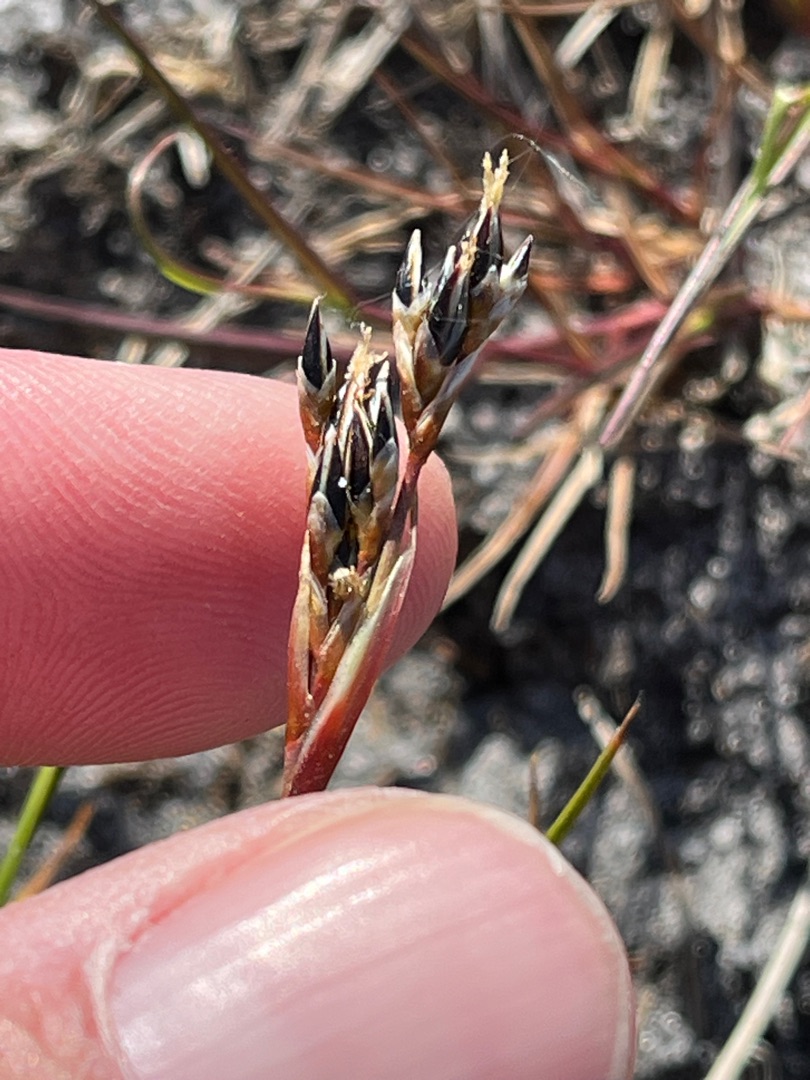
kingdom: Plantae
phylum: Tracheophyta
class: Liliopsida
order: Poales
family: Juncaceae
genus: Juncus
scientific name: Juncus squarrosus
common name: Børste-siv
